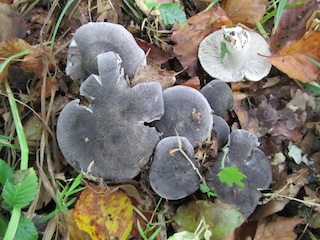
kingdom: Fungi
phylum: Basidiomycota
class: Agaricomycetes
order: Agaricales
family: Tricholomataceae
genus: Tricholoma
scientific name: Tricholoma orirubens
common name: rødbladet ridderhat
